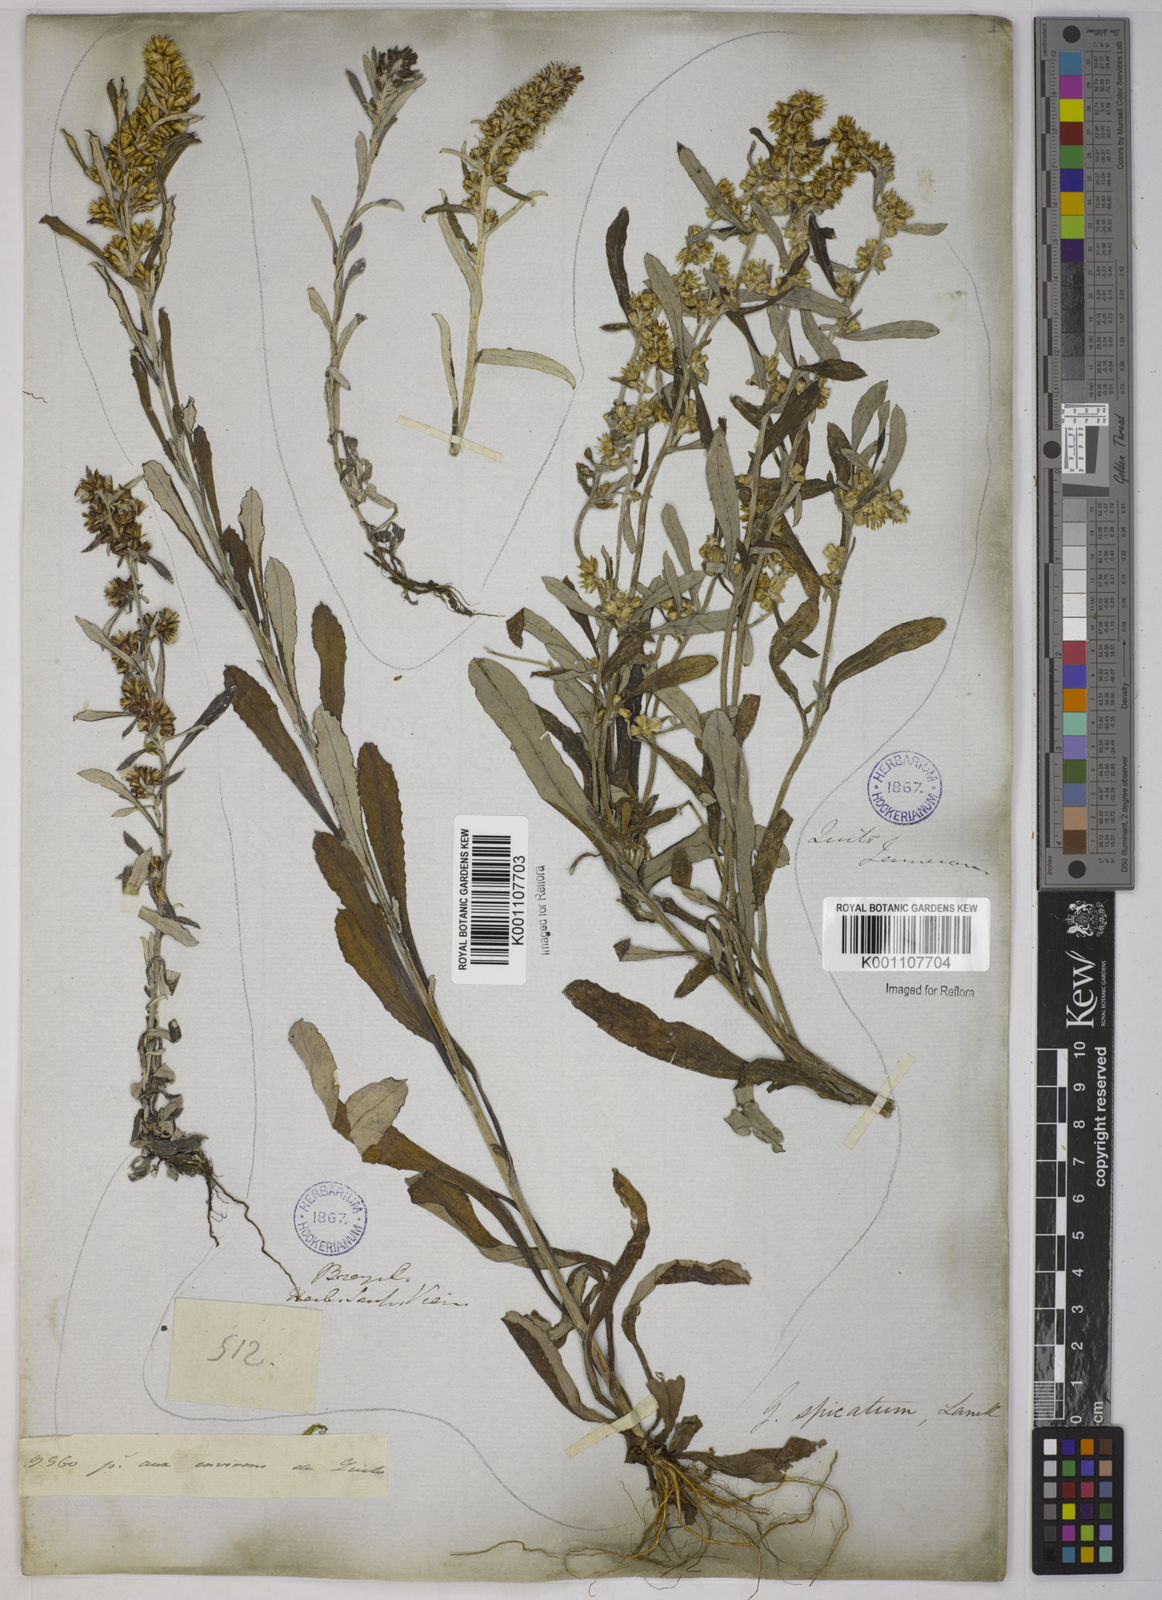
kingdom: Plantae
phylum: Tracheophyta
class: Magnoliopsida
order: Asterales
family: Asteraceae
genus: Gamochaeta
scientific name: Gamochaeta simplicicaulis
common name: Simple-stem everlasting
